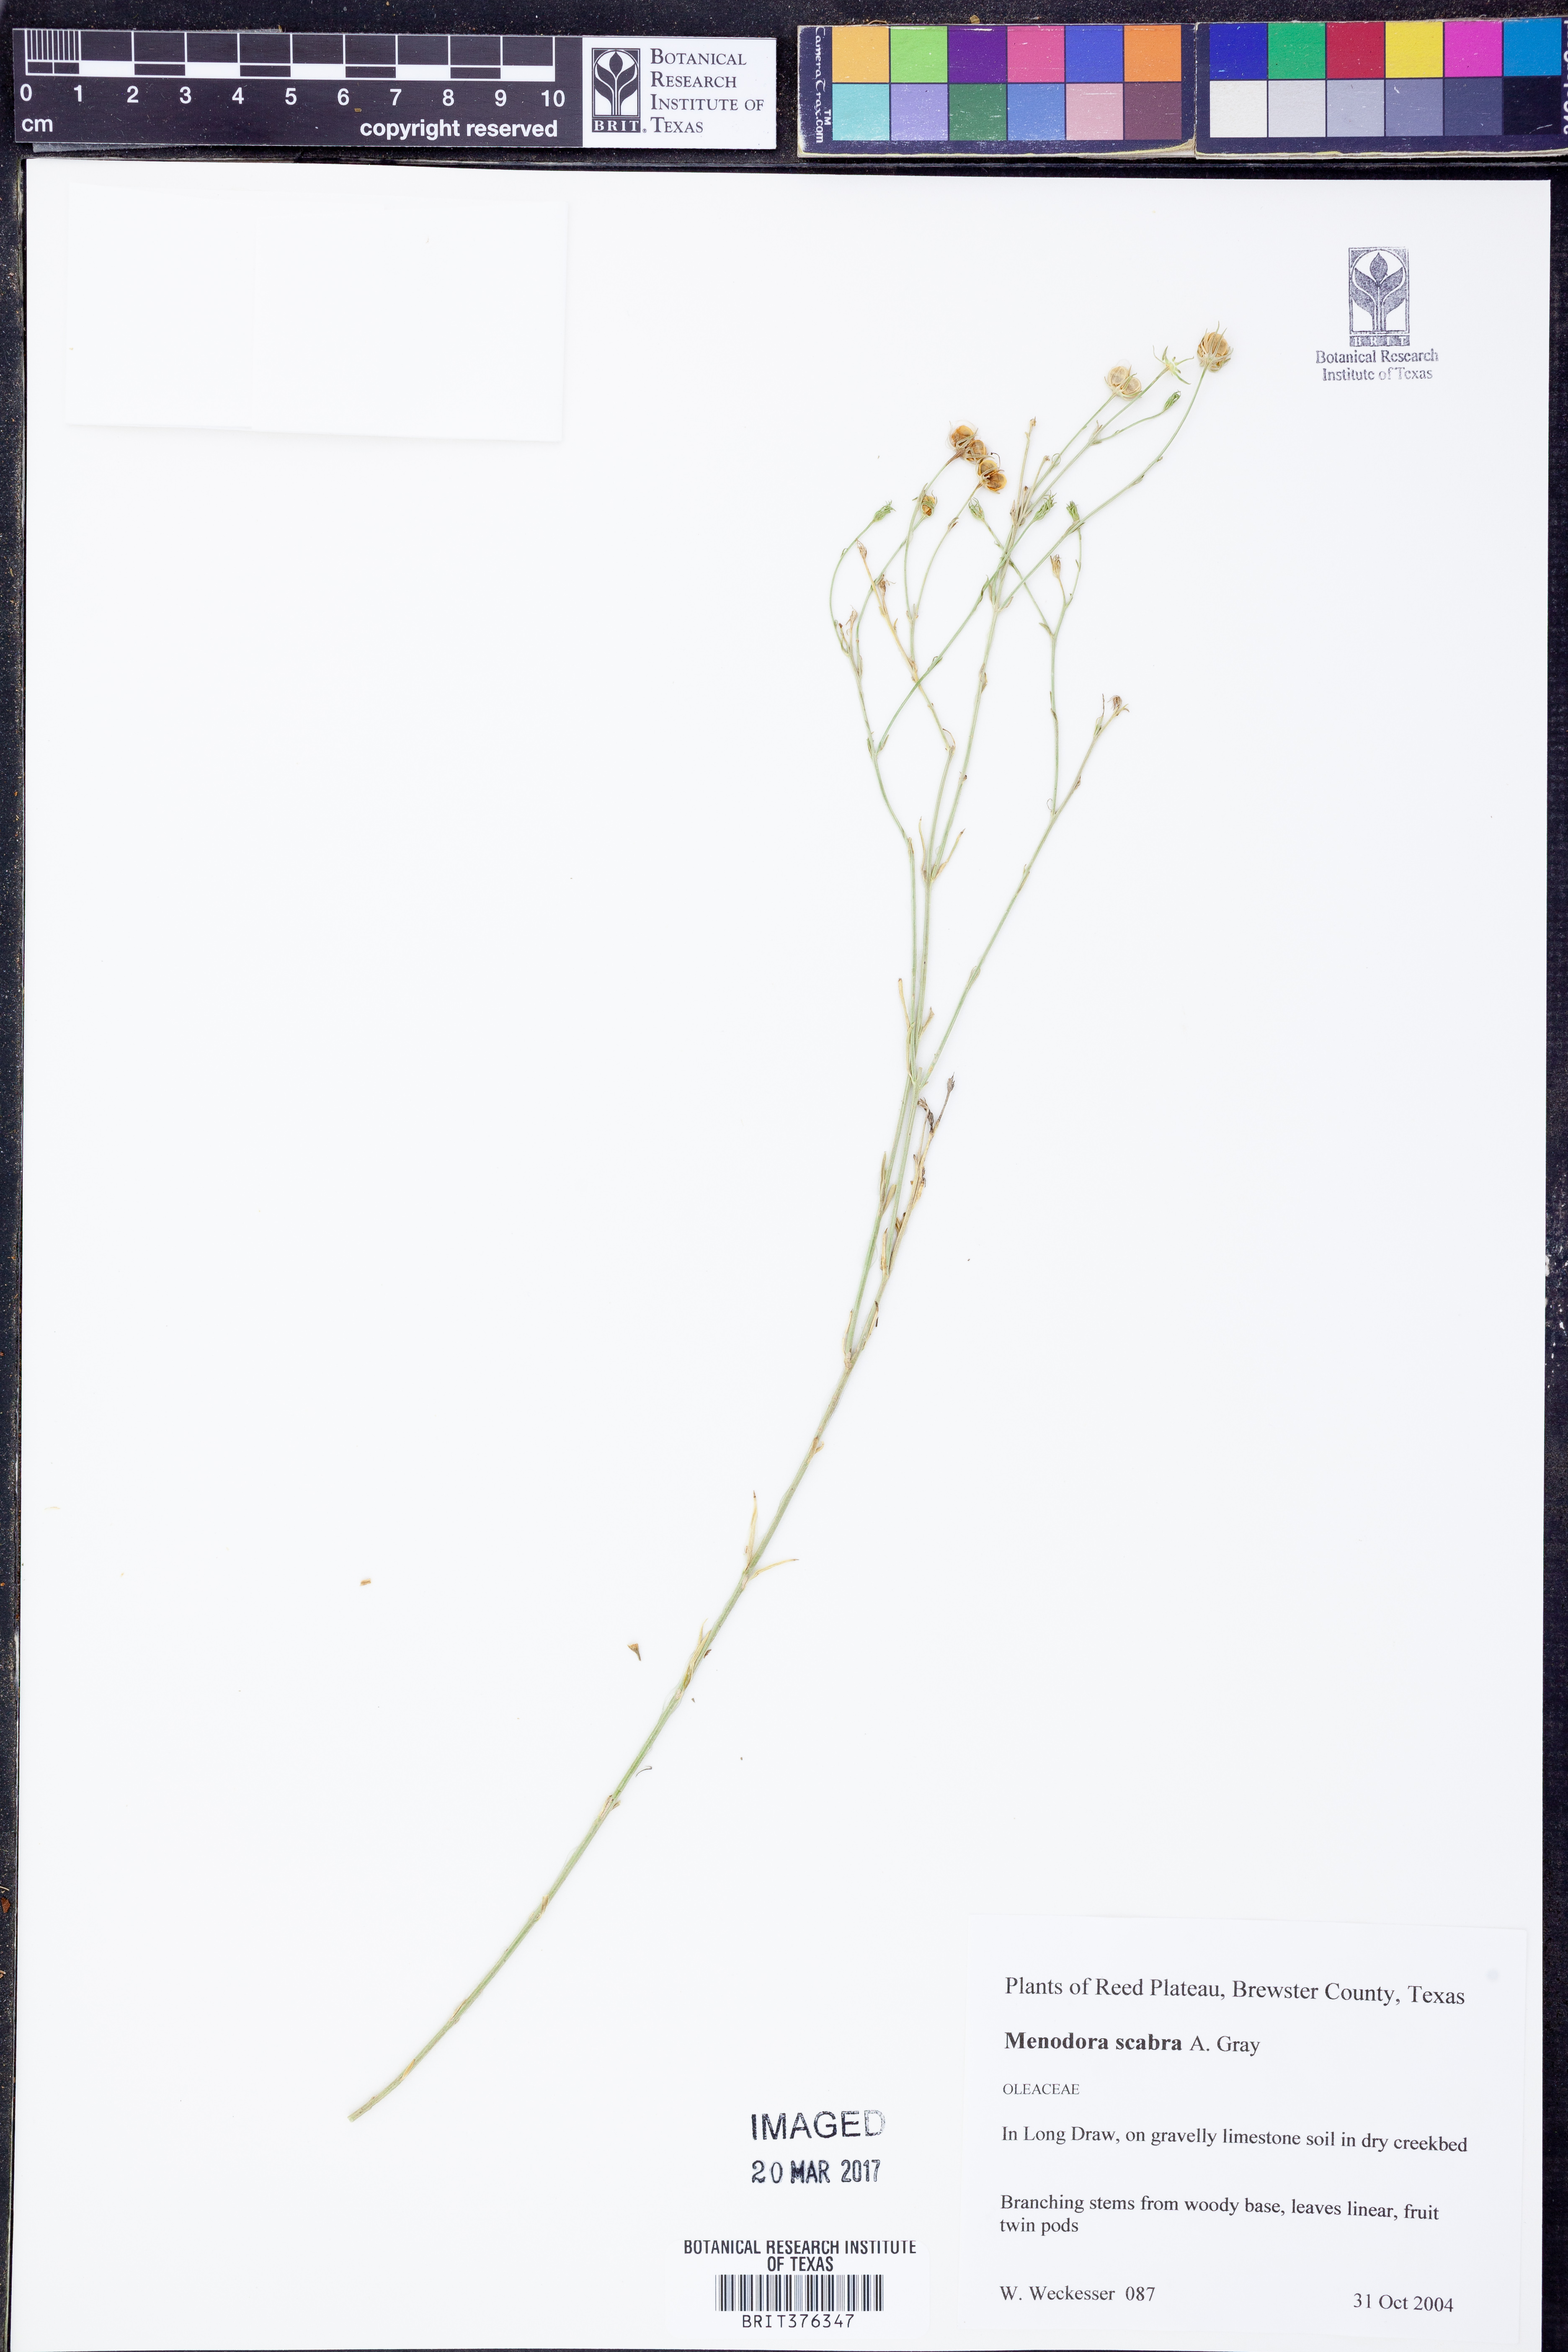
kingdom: Plantae
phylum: Tracheophyta
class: Magnoliopsida
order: Lamiales
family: Oleaceae
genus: Menodora
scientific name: Menodora scabra
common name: Rough menodora
